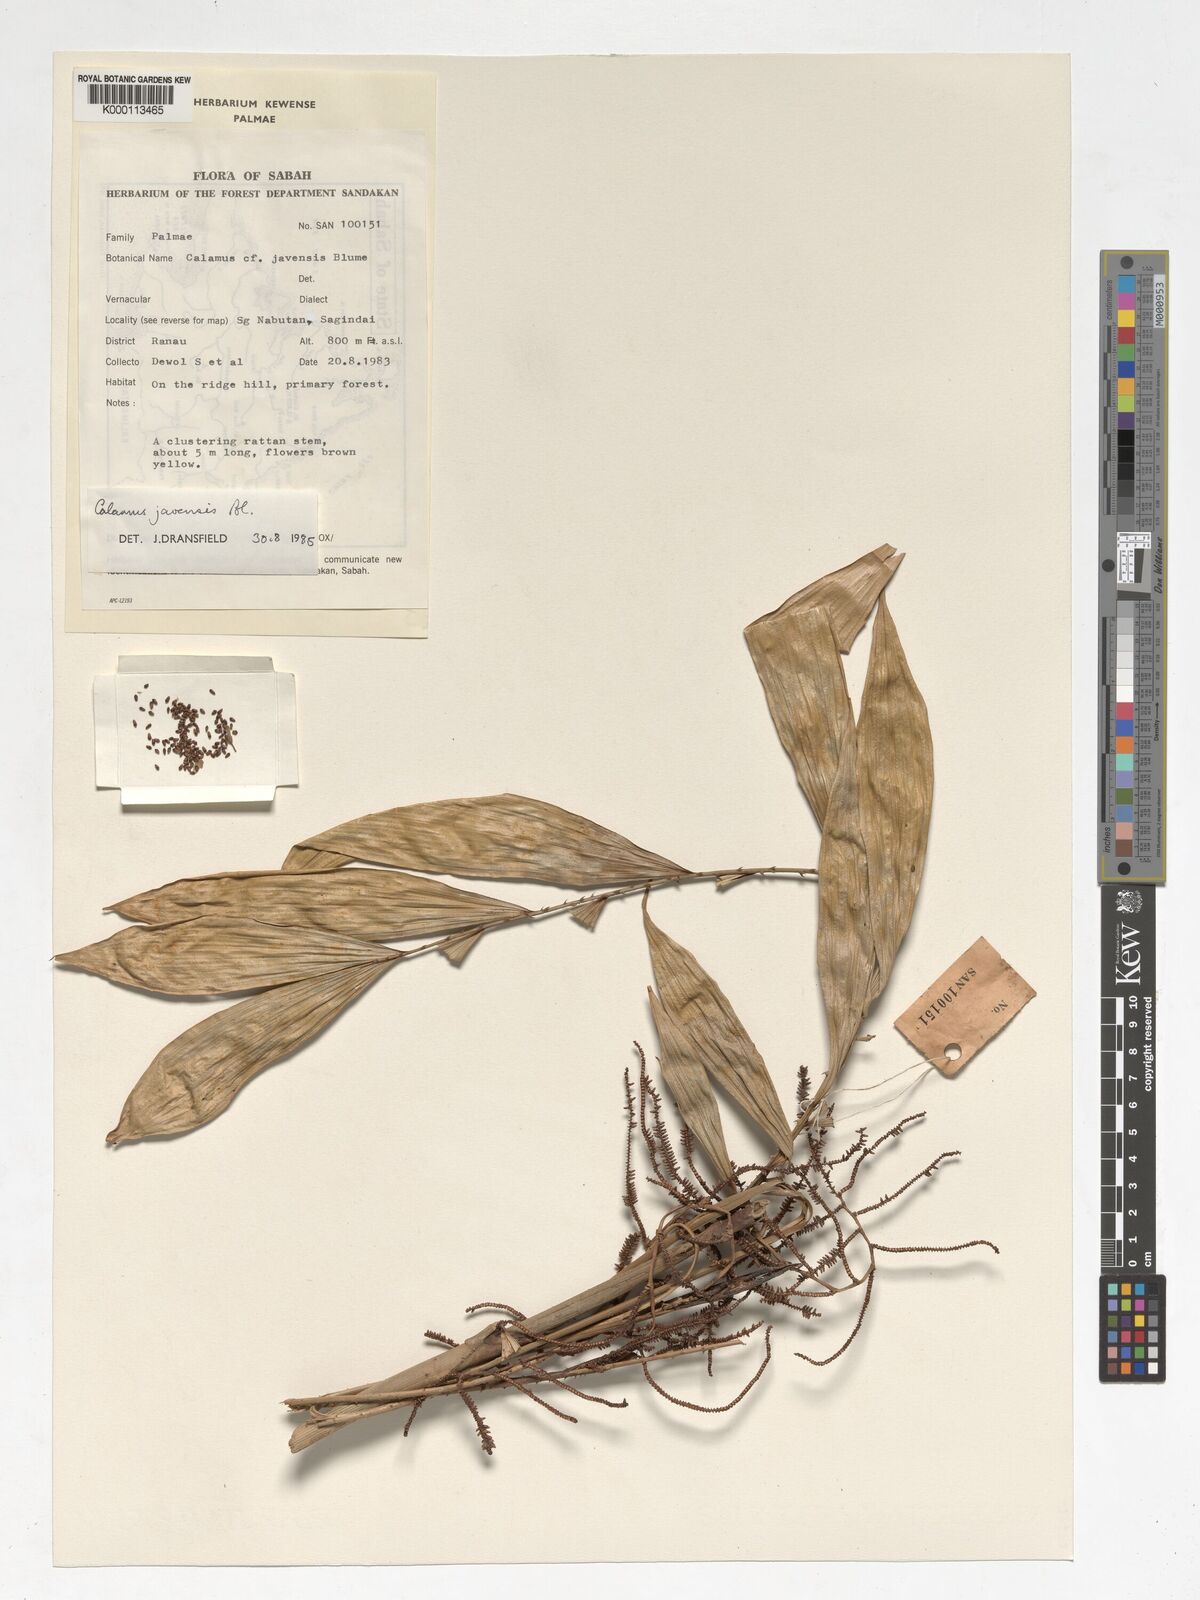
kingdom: Plantae
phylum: Tracheophyta
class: Liliopsida
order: Arecales
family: Arecaceae
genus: Calamus
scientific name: Calamus javensis
